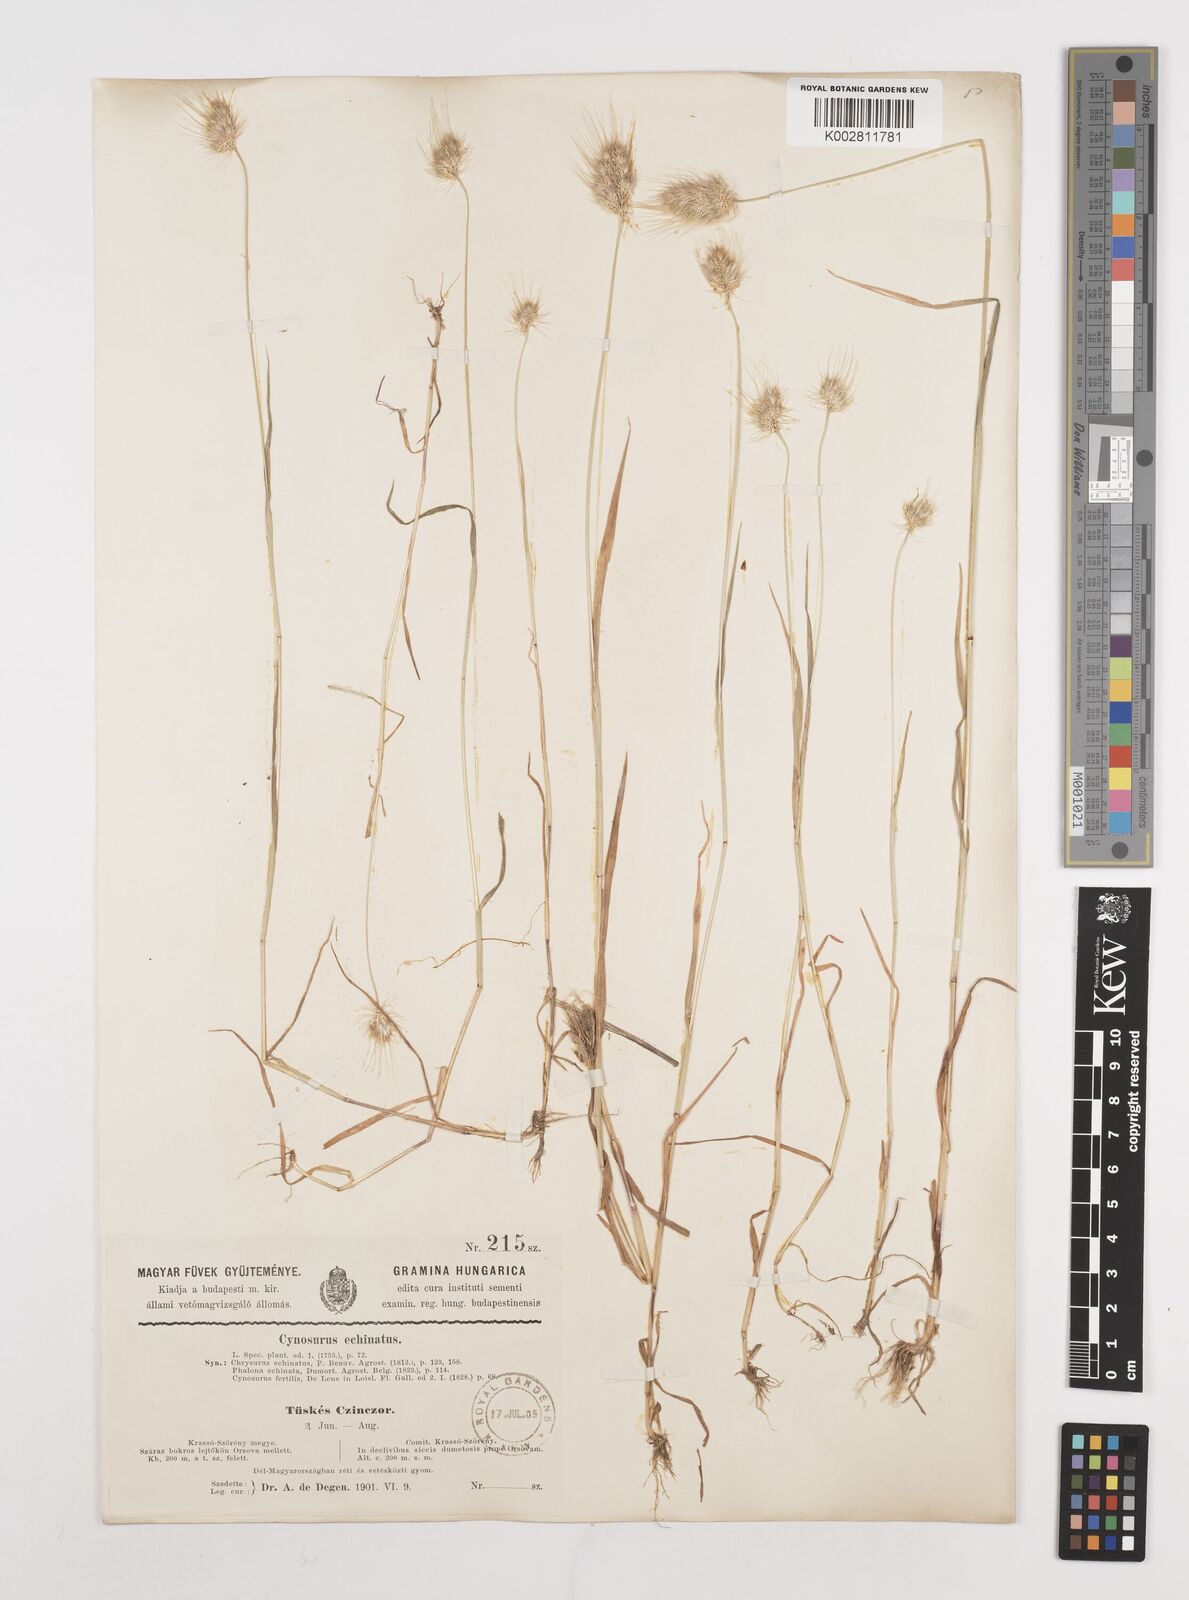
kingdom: Plantae
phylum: Tracheophyta
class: Liliopsida
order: Poales
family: Poaceae
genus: Cynosurus
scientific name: Cynosurus echinatus
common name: Rough dog's-tail
